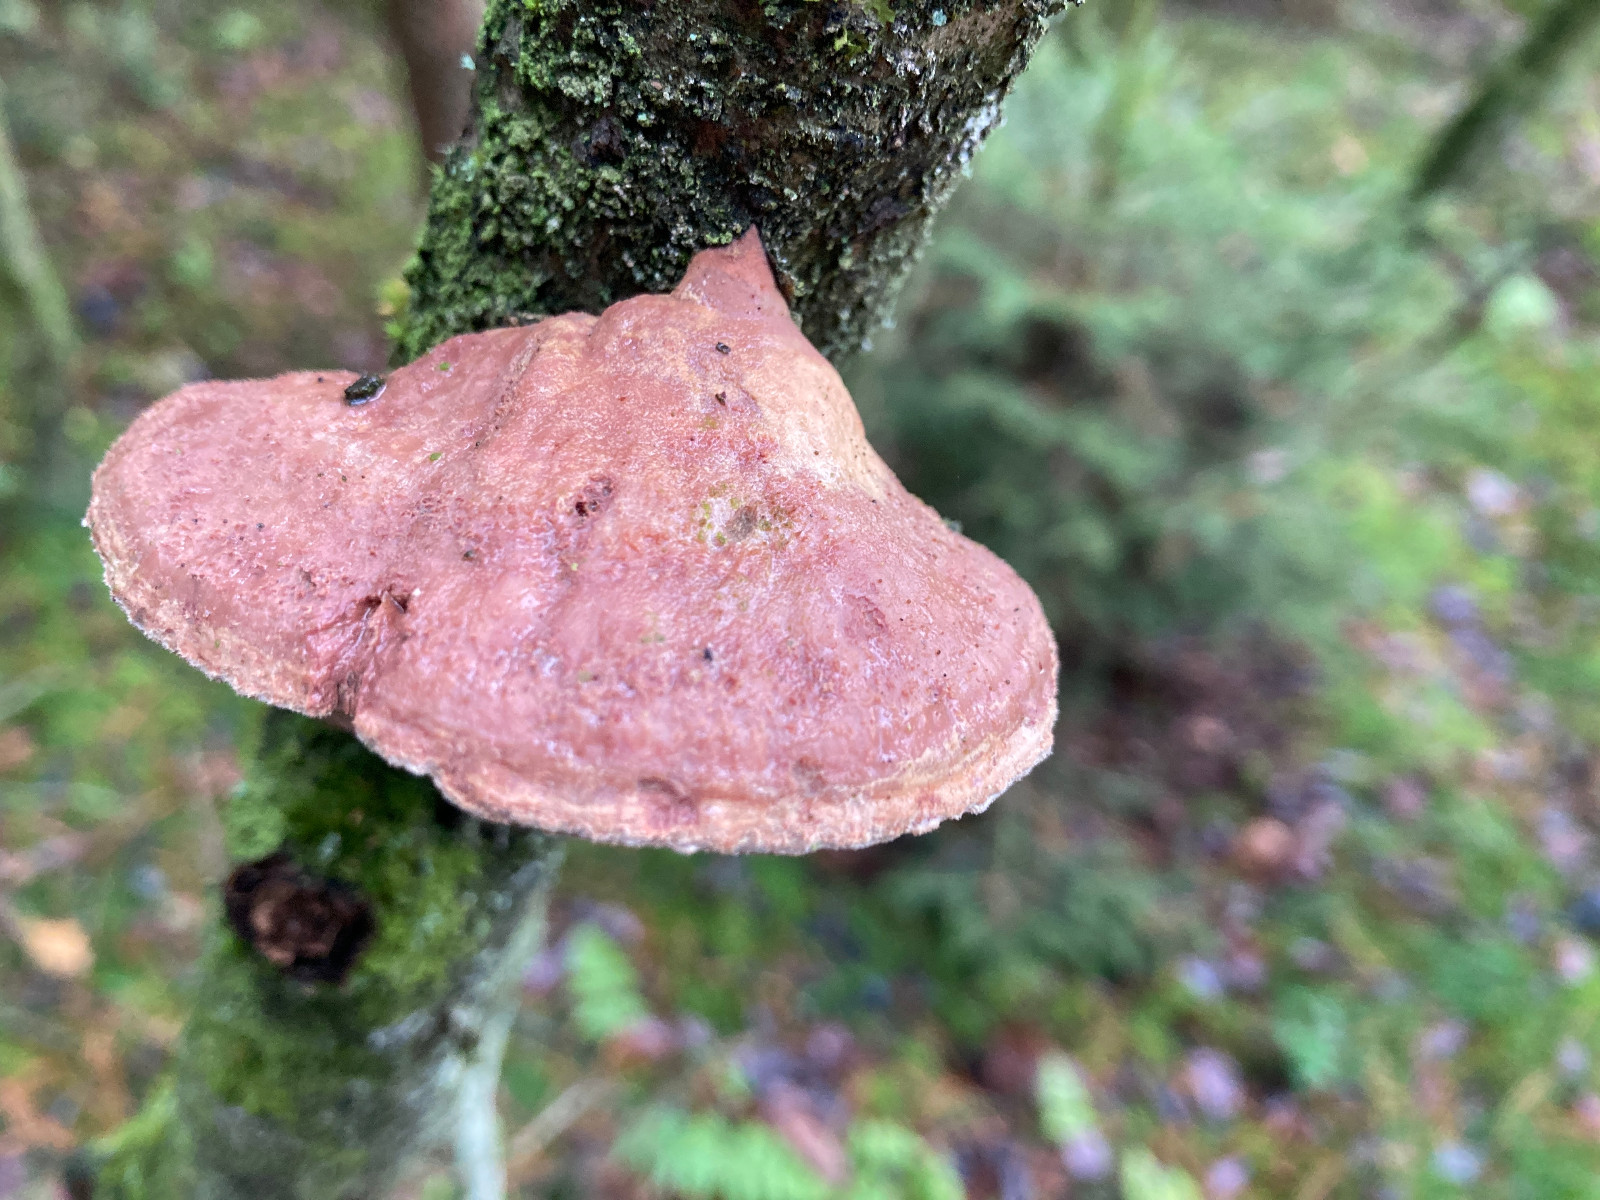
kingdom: Fungi
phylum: Basidiomycota
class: Agaricomycetes
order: Polyporales
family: Phanerochaetaceae
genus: Hapalopilus
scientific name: Hapalopilus rutilans
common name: rødlig okkerporesvamp
